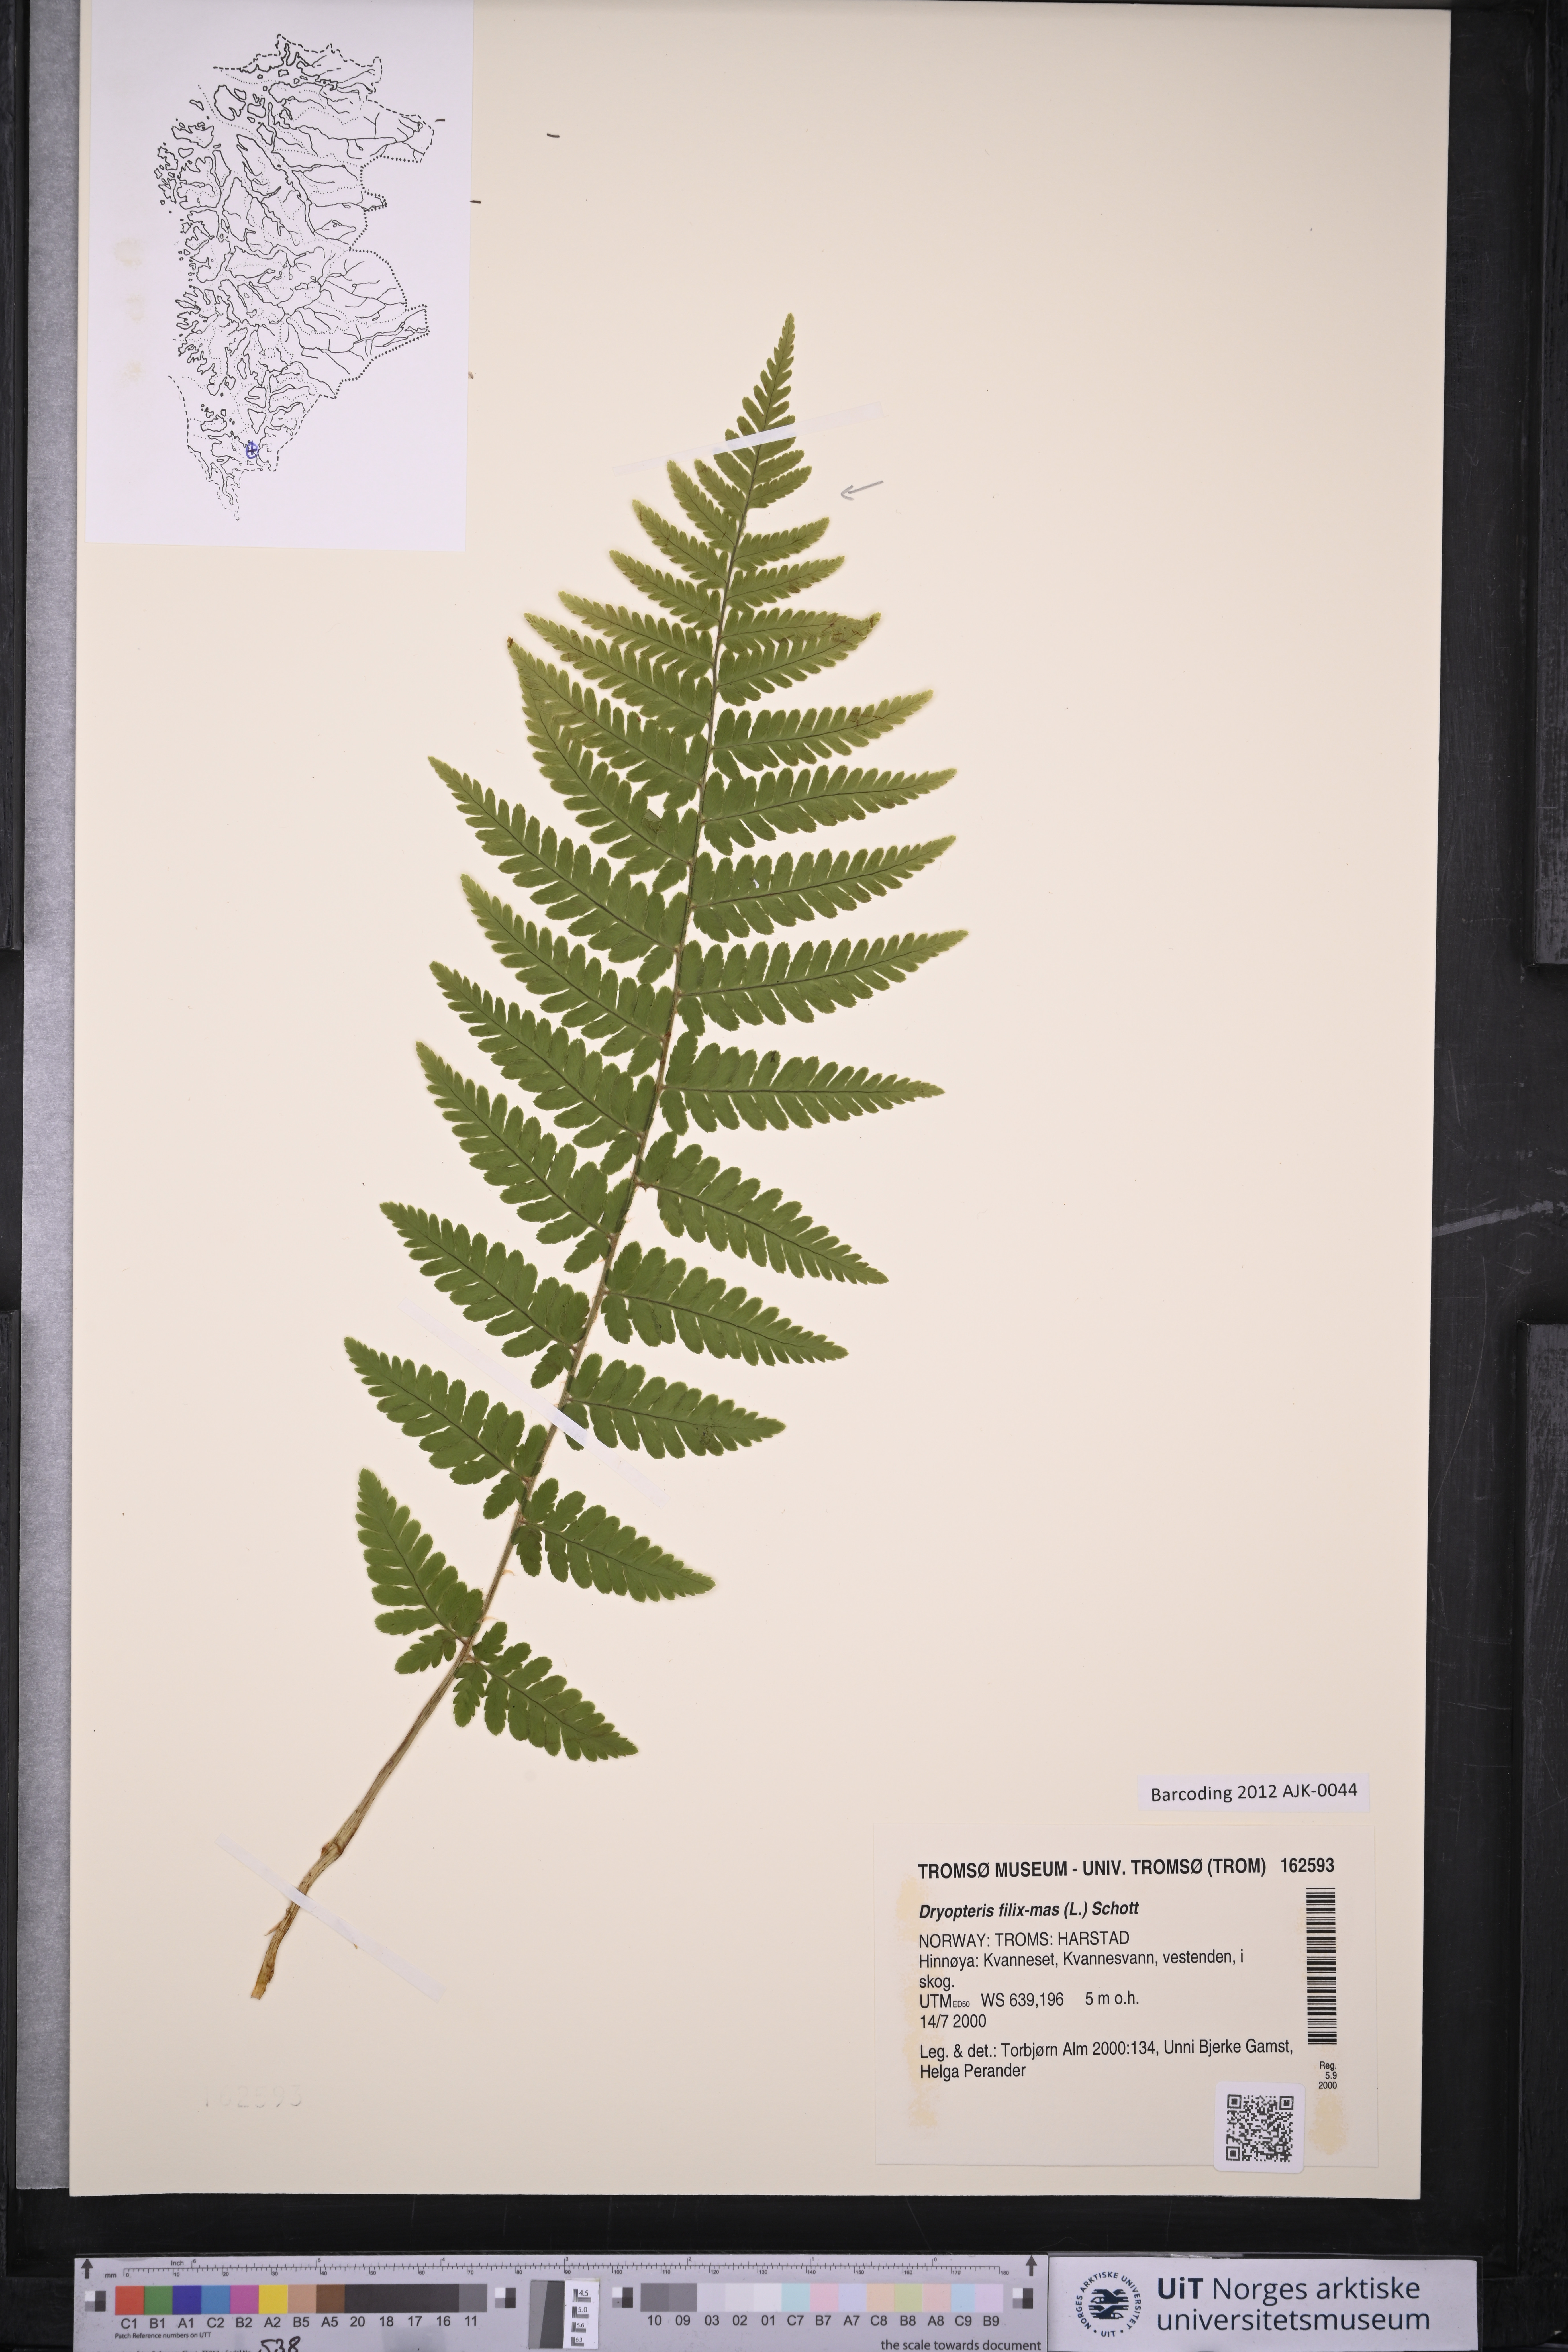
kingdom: Plantae
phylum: Tracheophyta
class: Polypodiopsida
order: Polypodiales
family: Dryopteridaceae
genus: Dryopteris
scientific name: Dryopteris filix-mas
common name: Male fern
